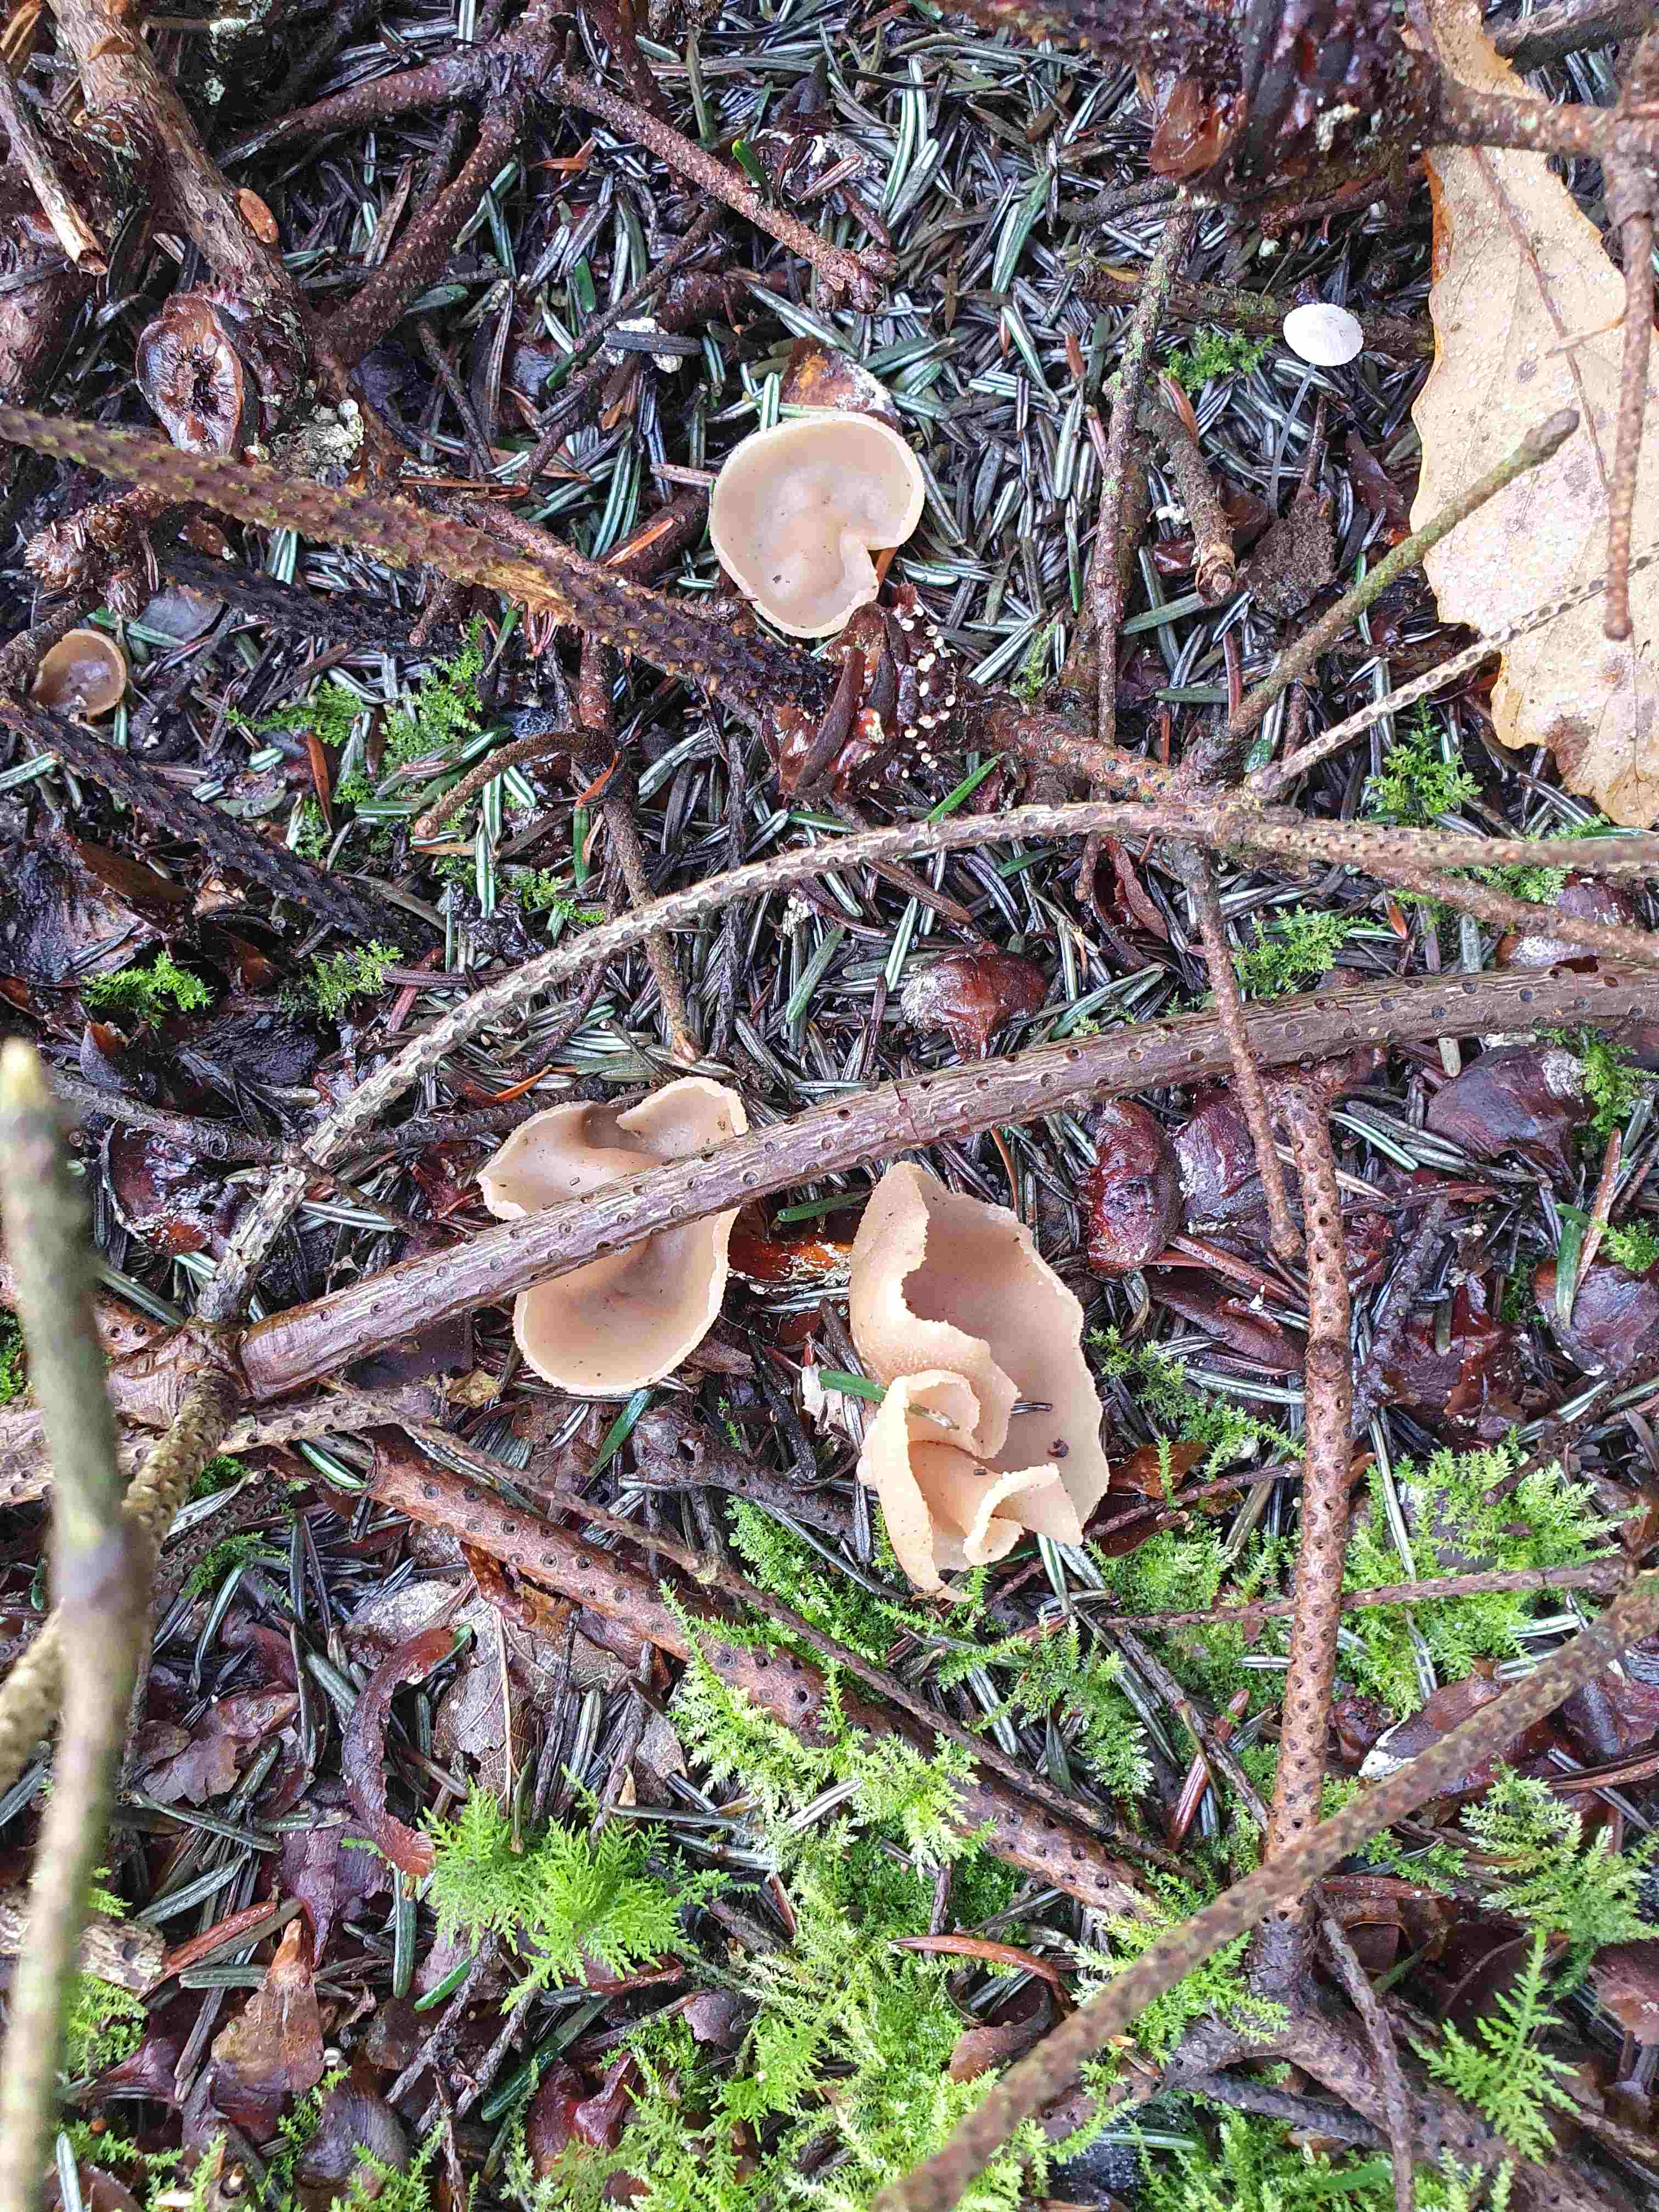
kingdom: Fungi
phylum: Ascomycota
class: Pezizomycetes
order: Pezizales
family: Pezizaceae
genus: Peziza
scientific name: Peziza
